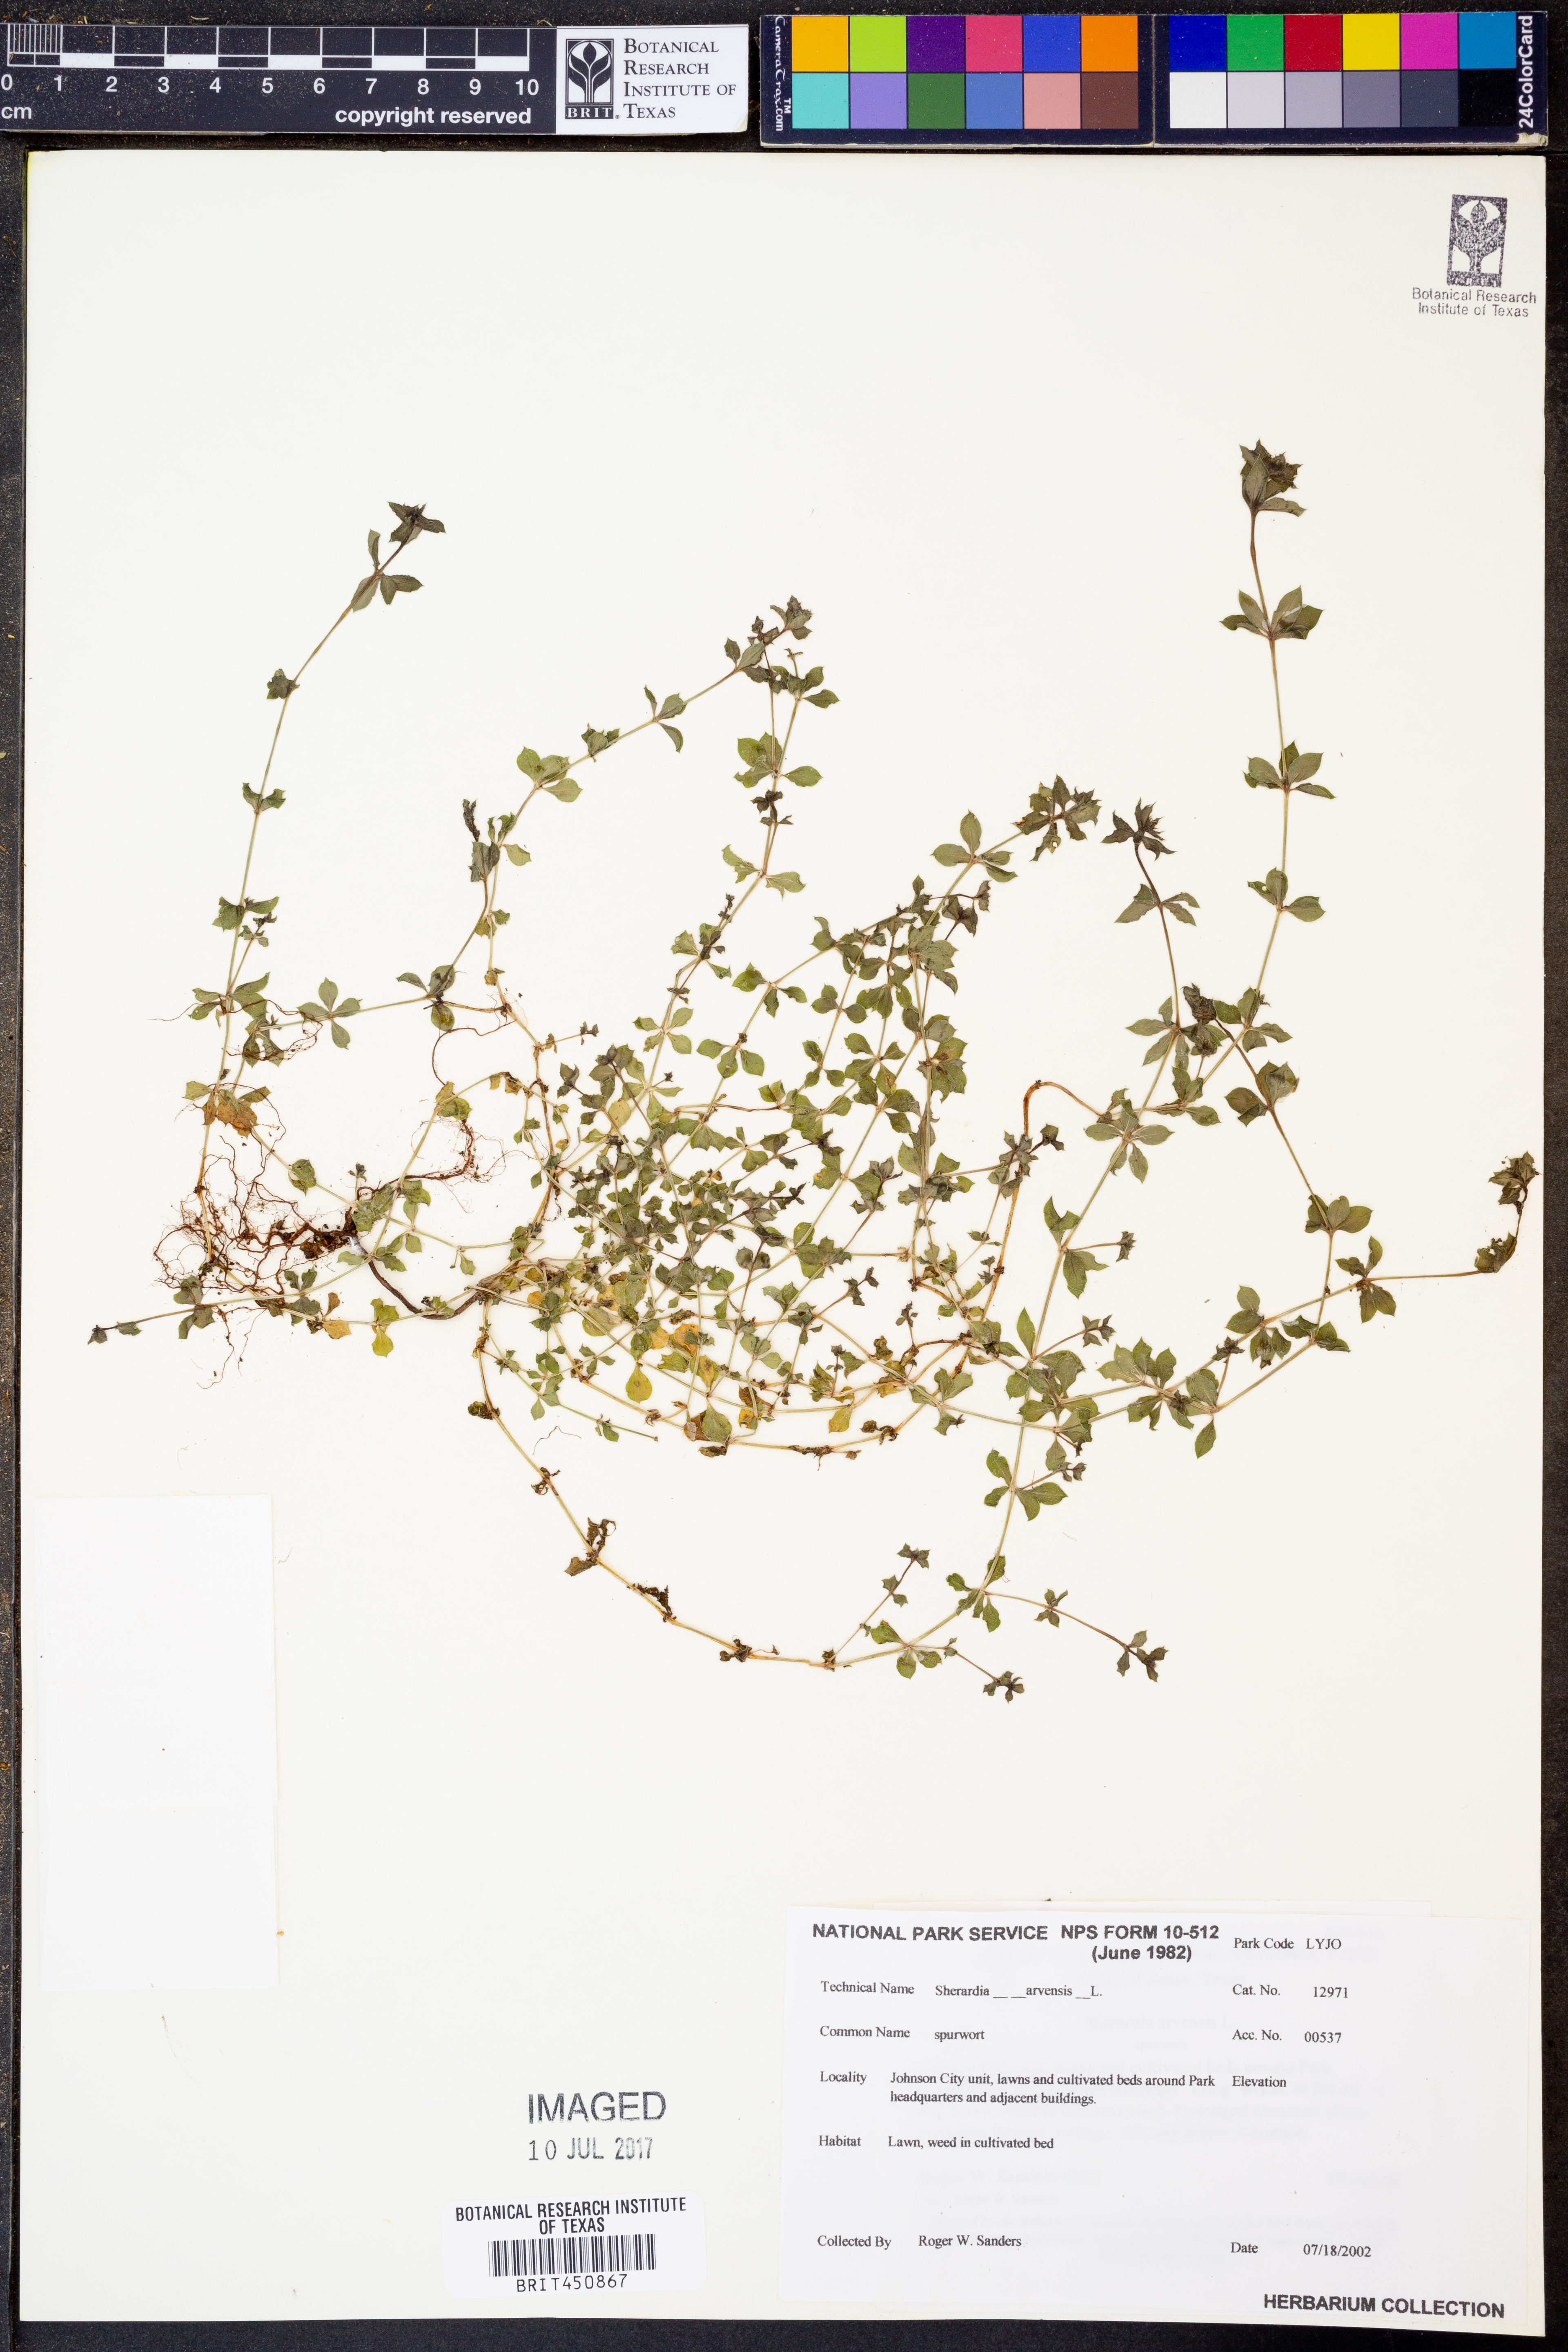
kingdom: Plantae
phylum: Tracheophyta
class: Magnoliopsida
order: Gentianales
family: Rubiaceae
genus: Sherardia
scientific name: Sherardia arvensis
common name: Field madder
